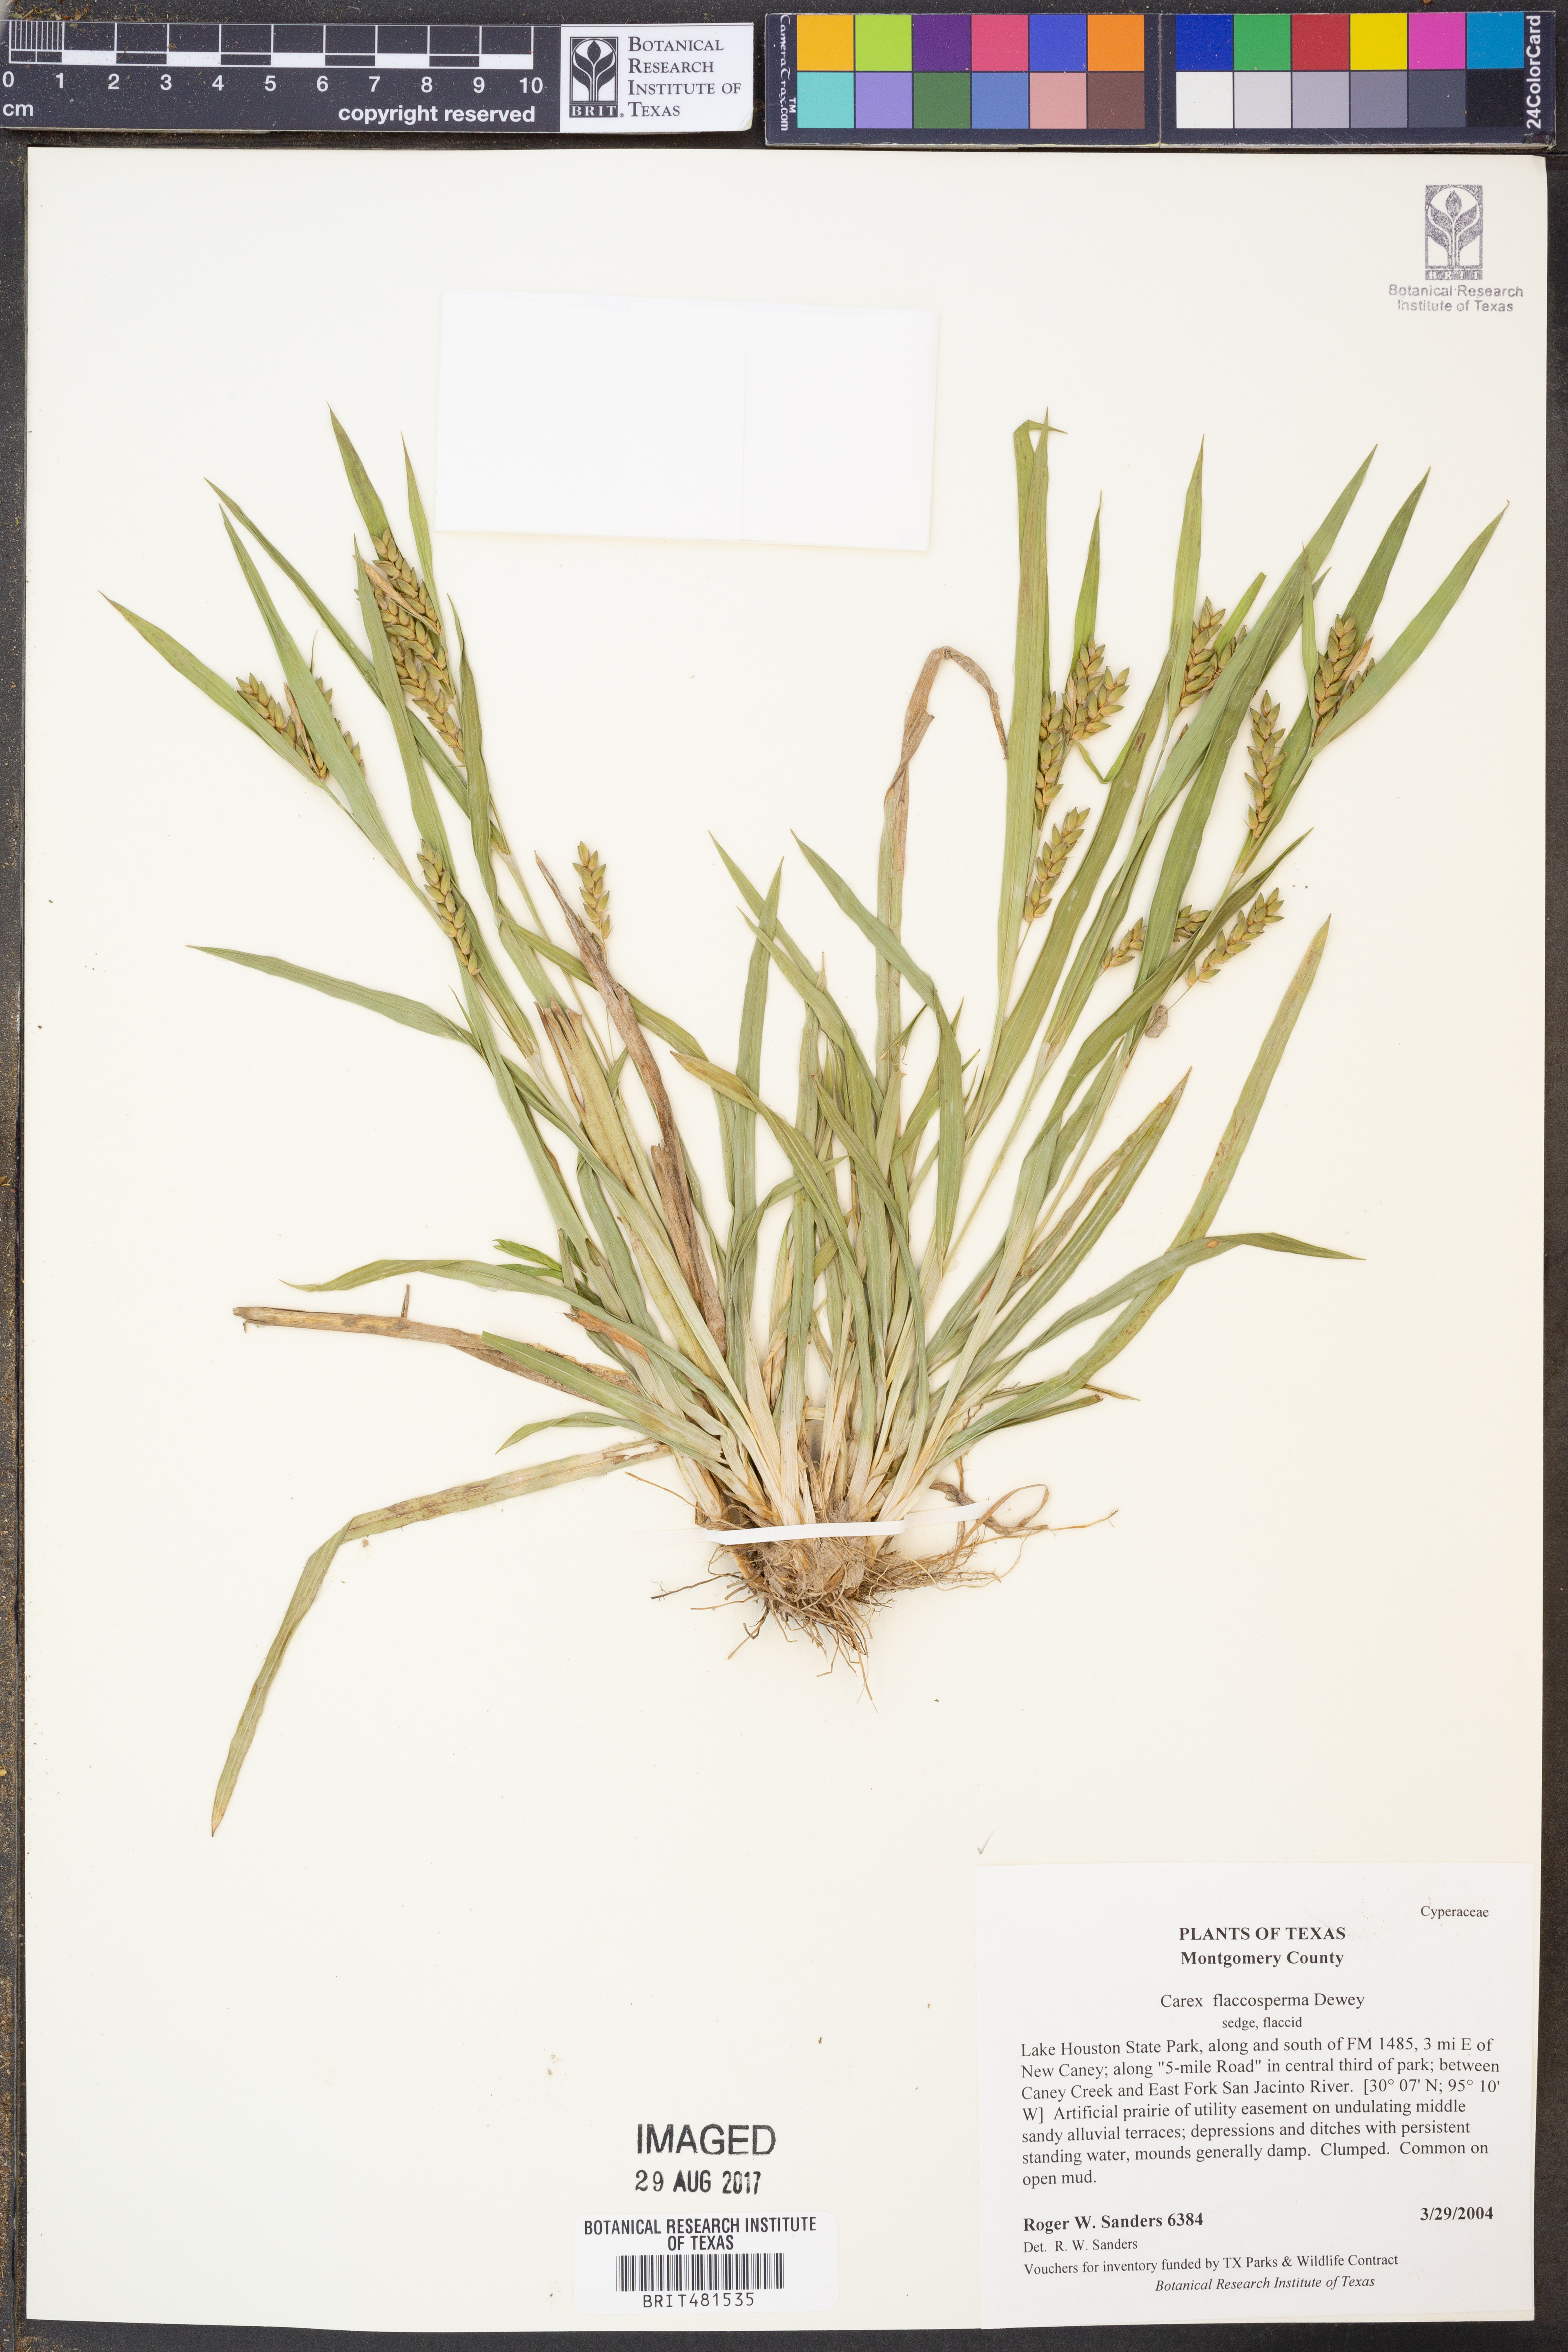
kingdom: Plantae
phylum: Tracheophyta
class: Liliopsida
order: Poales
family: Cyperaceae
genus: Carex
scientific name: Carex flaccosperma
